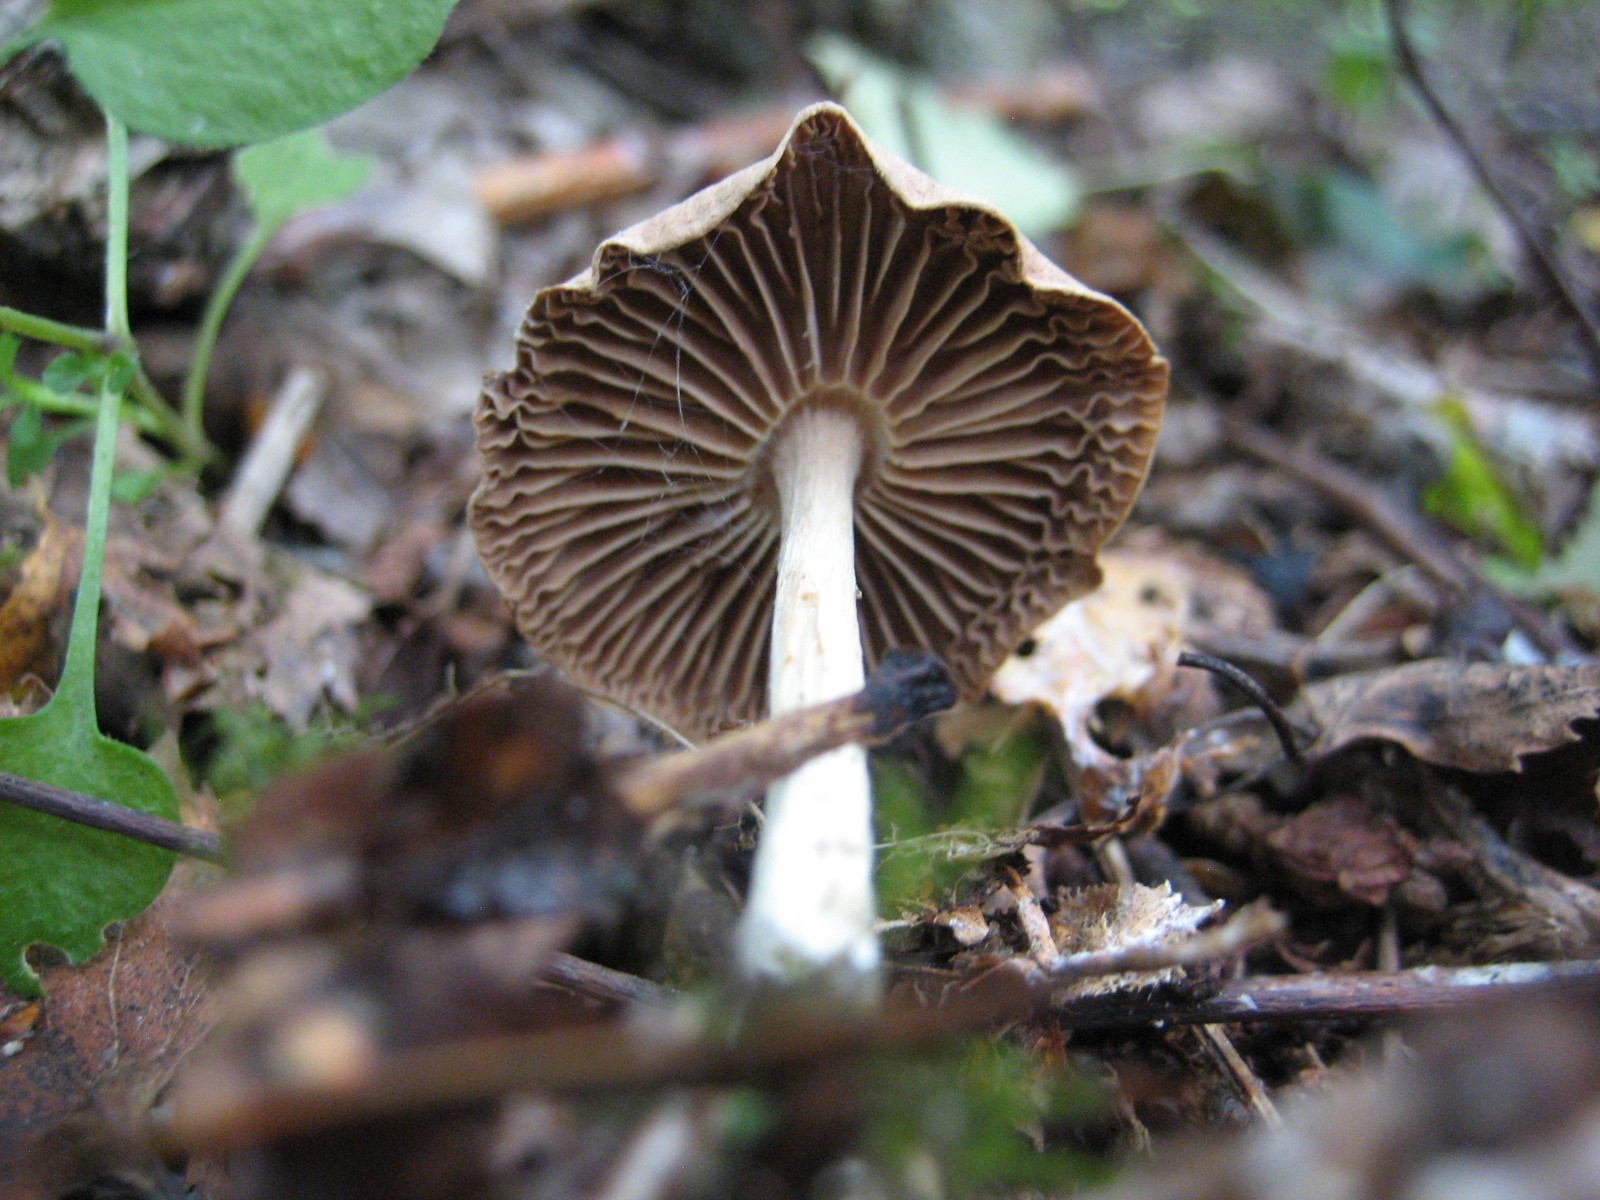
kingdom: Fungi
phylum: Basidiomycota
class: Agaricomycetes
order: Agaricales
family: Omphalotaceae
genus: Collybiopsis
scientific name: Collybiopsis peronata
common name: bestøvlet fladhat
